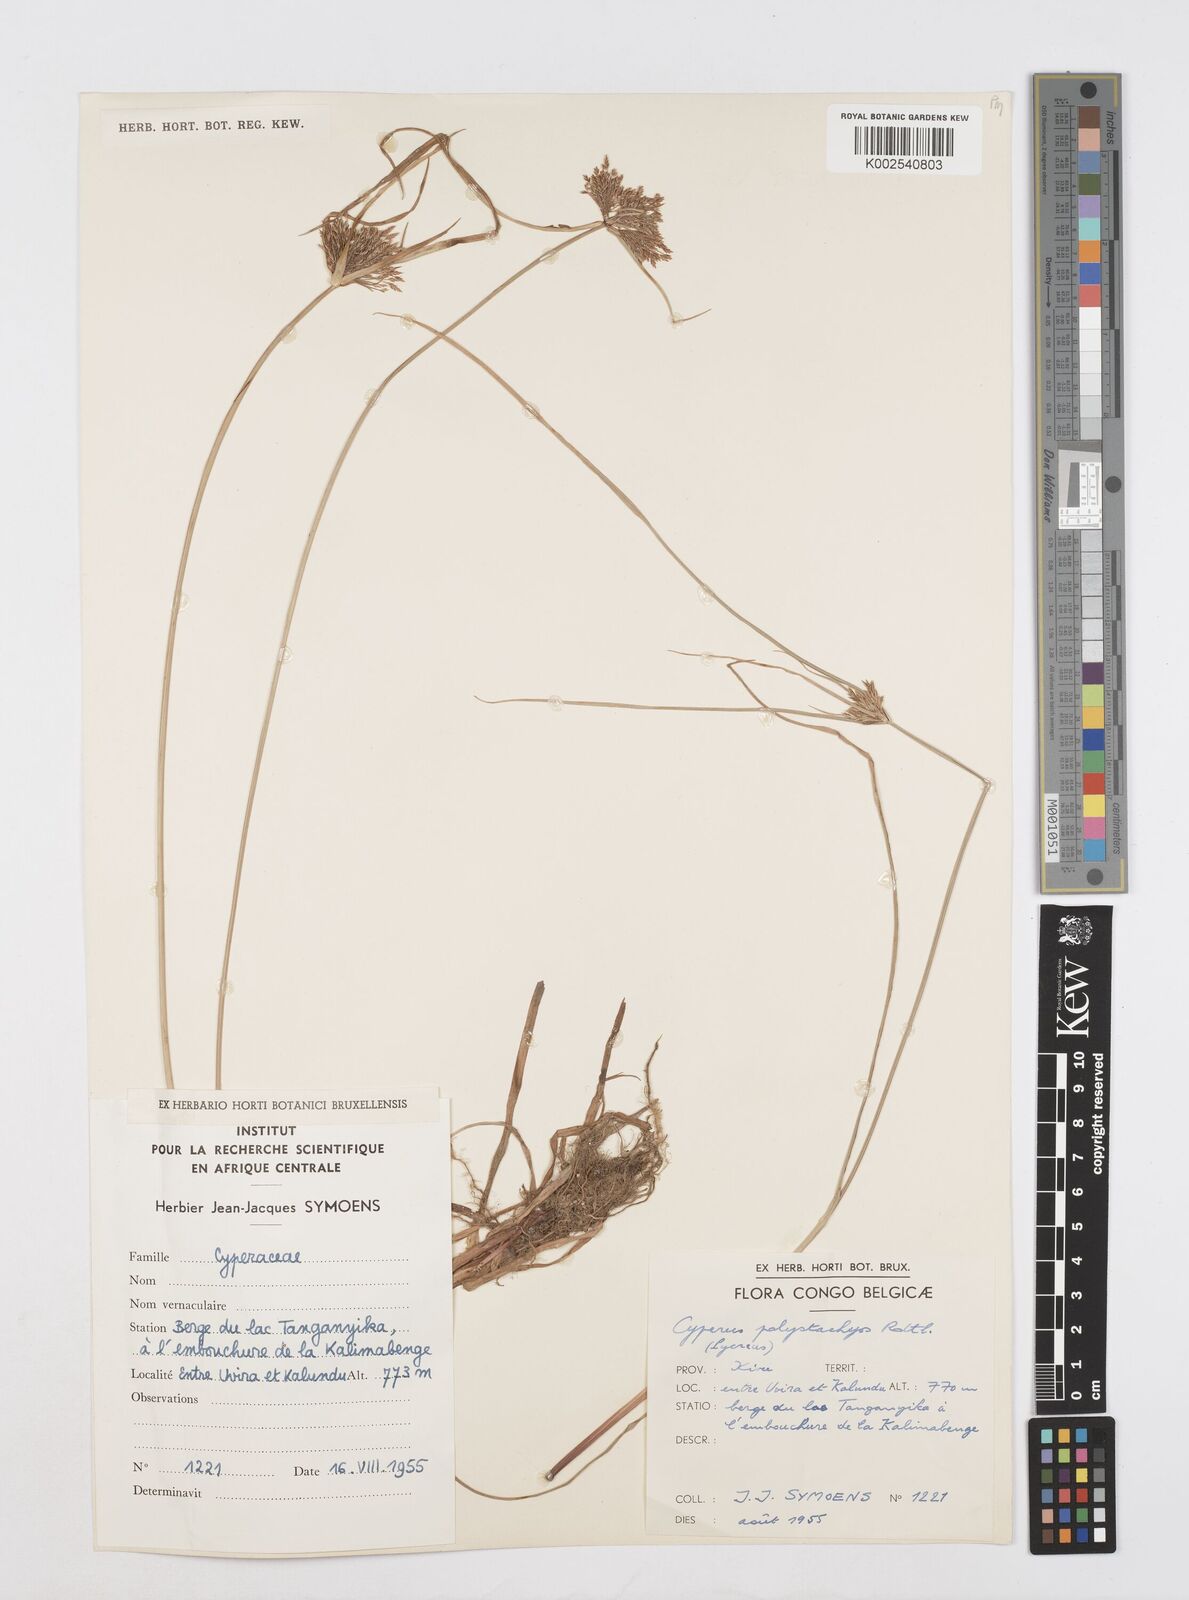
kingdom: Plantae
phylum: Tracheophyta
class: Liliopsida
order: Poales
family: Cyperaceae
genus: Cyperus
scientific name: Cyperus polystachyos
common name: Bunchy flat sedge
